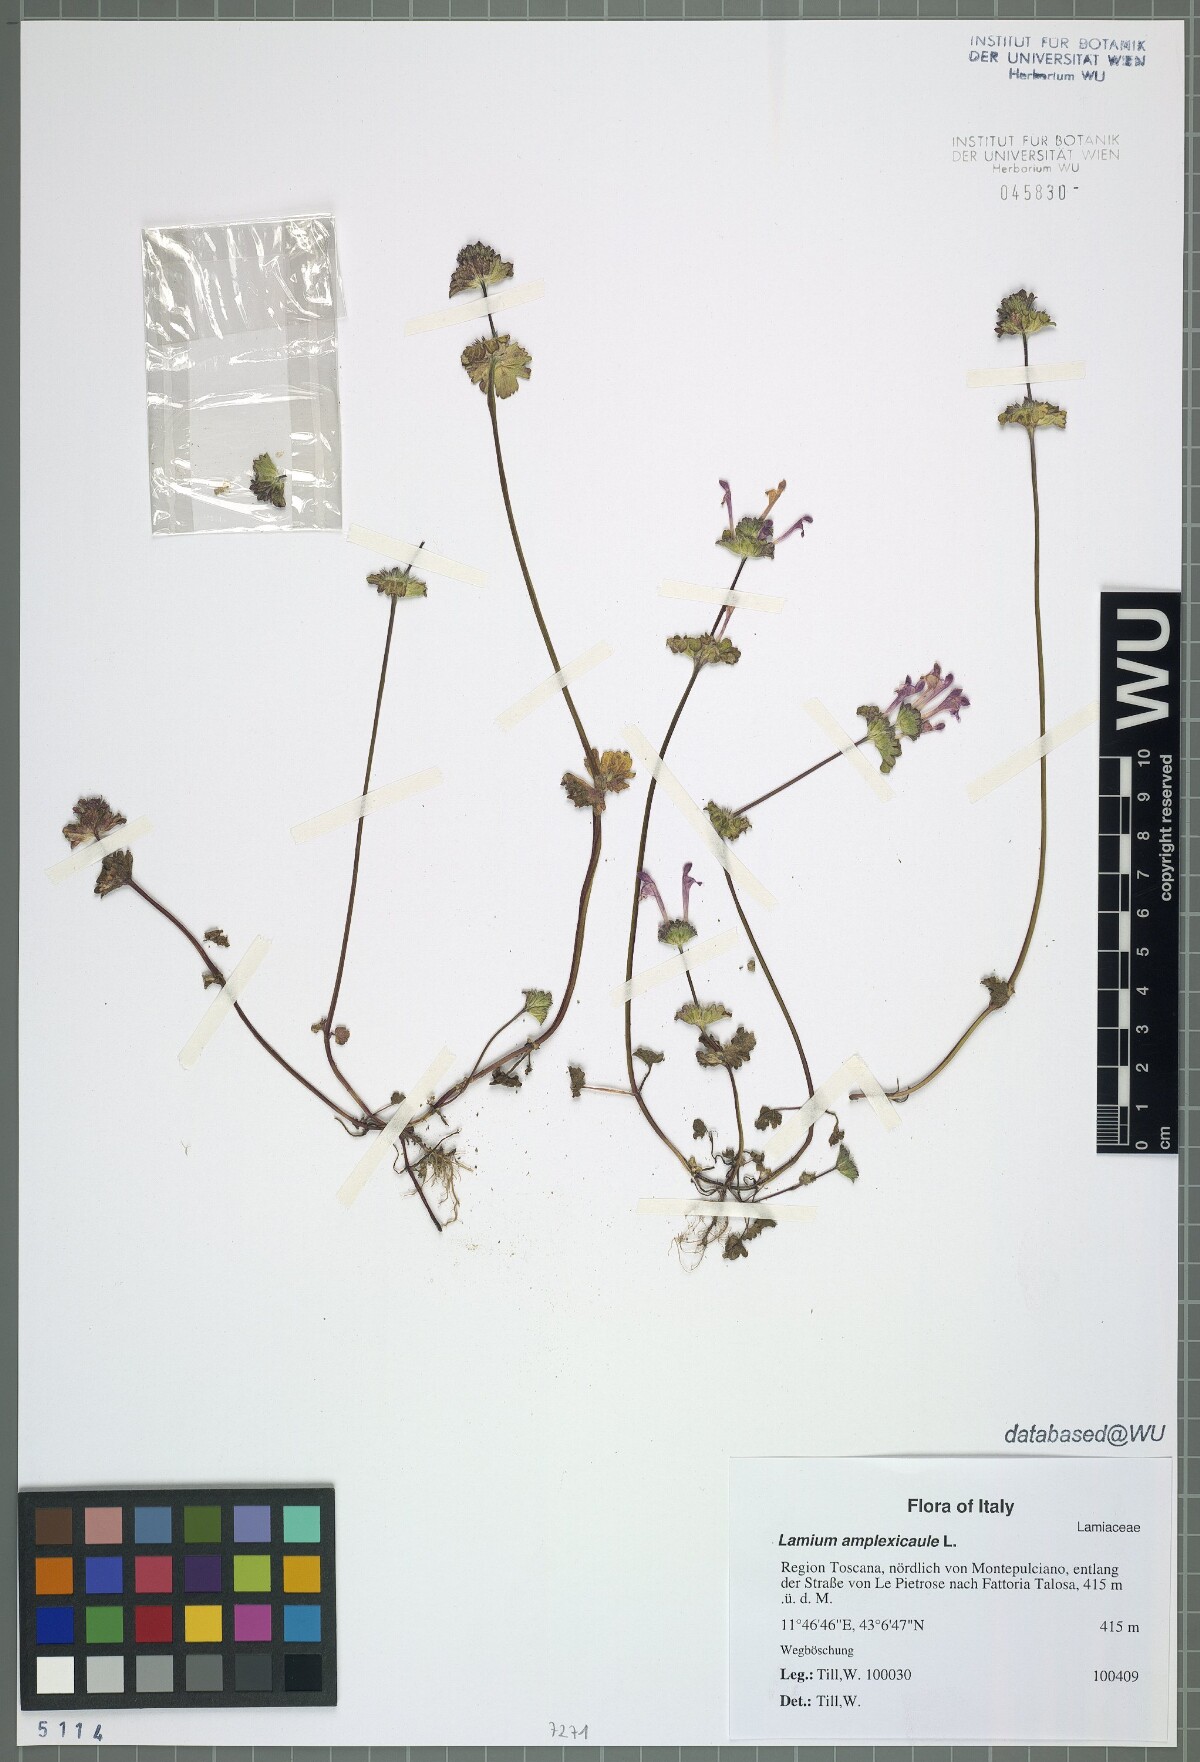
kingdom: Plantae
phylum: Tracheophyta
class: Magnoliopsida
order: Lamiales
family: Lamiaceae
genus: Lamium
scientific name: Lamium amplexicaule
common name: Henbit dead-nettle
